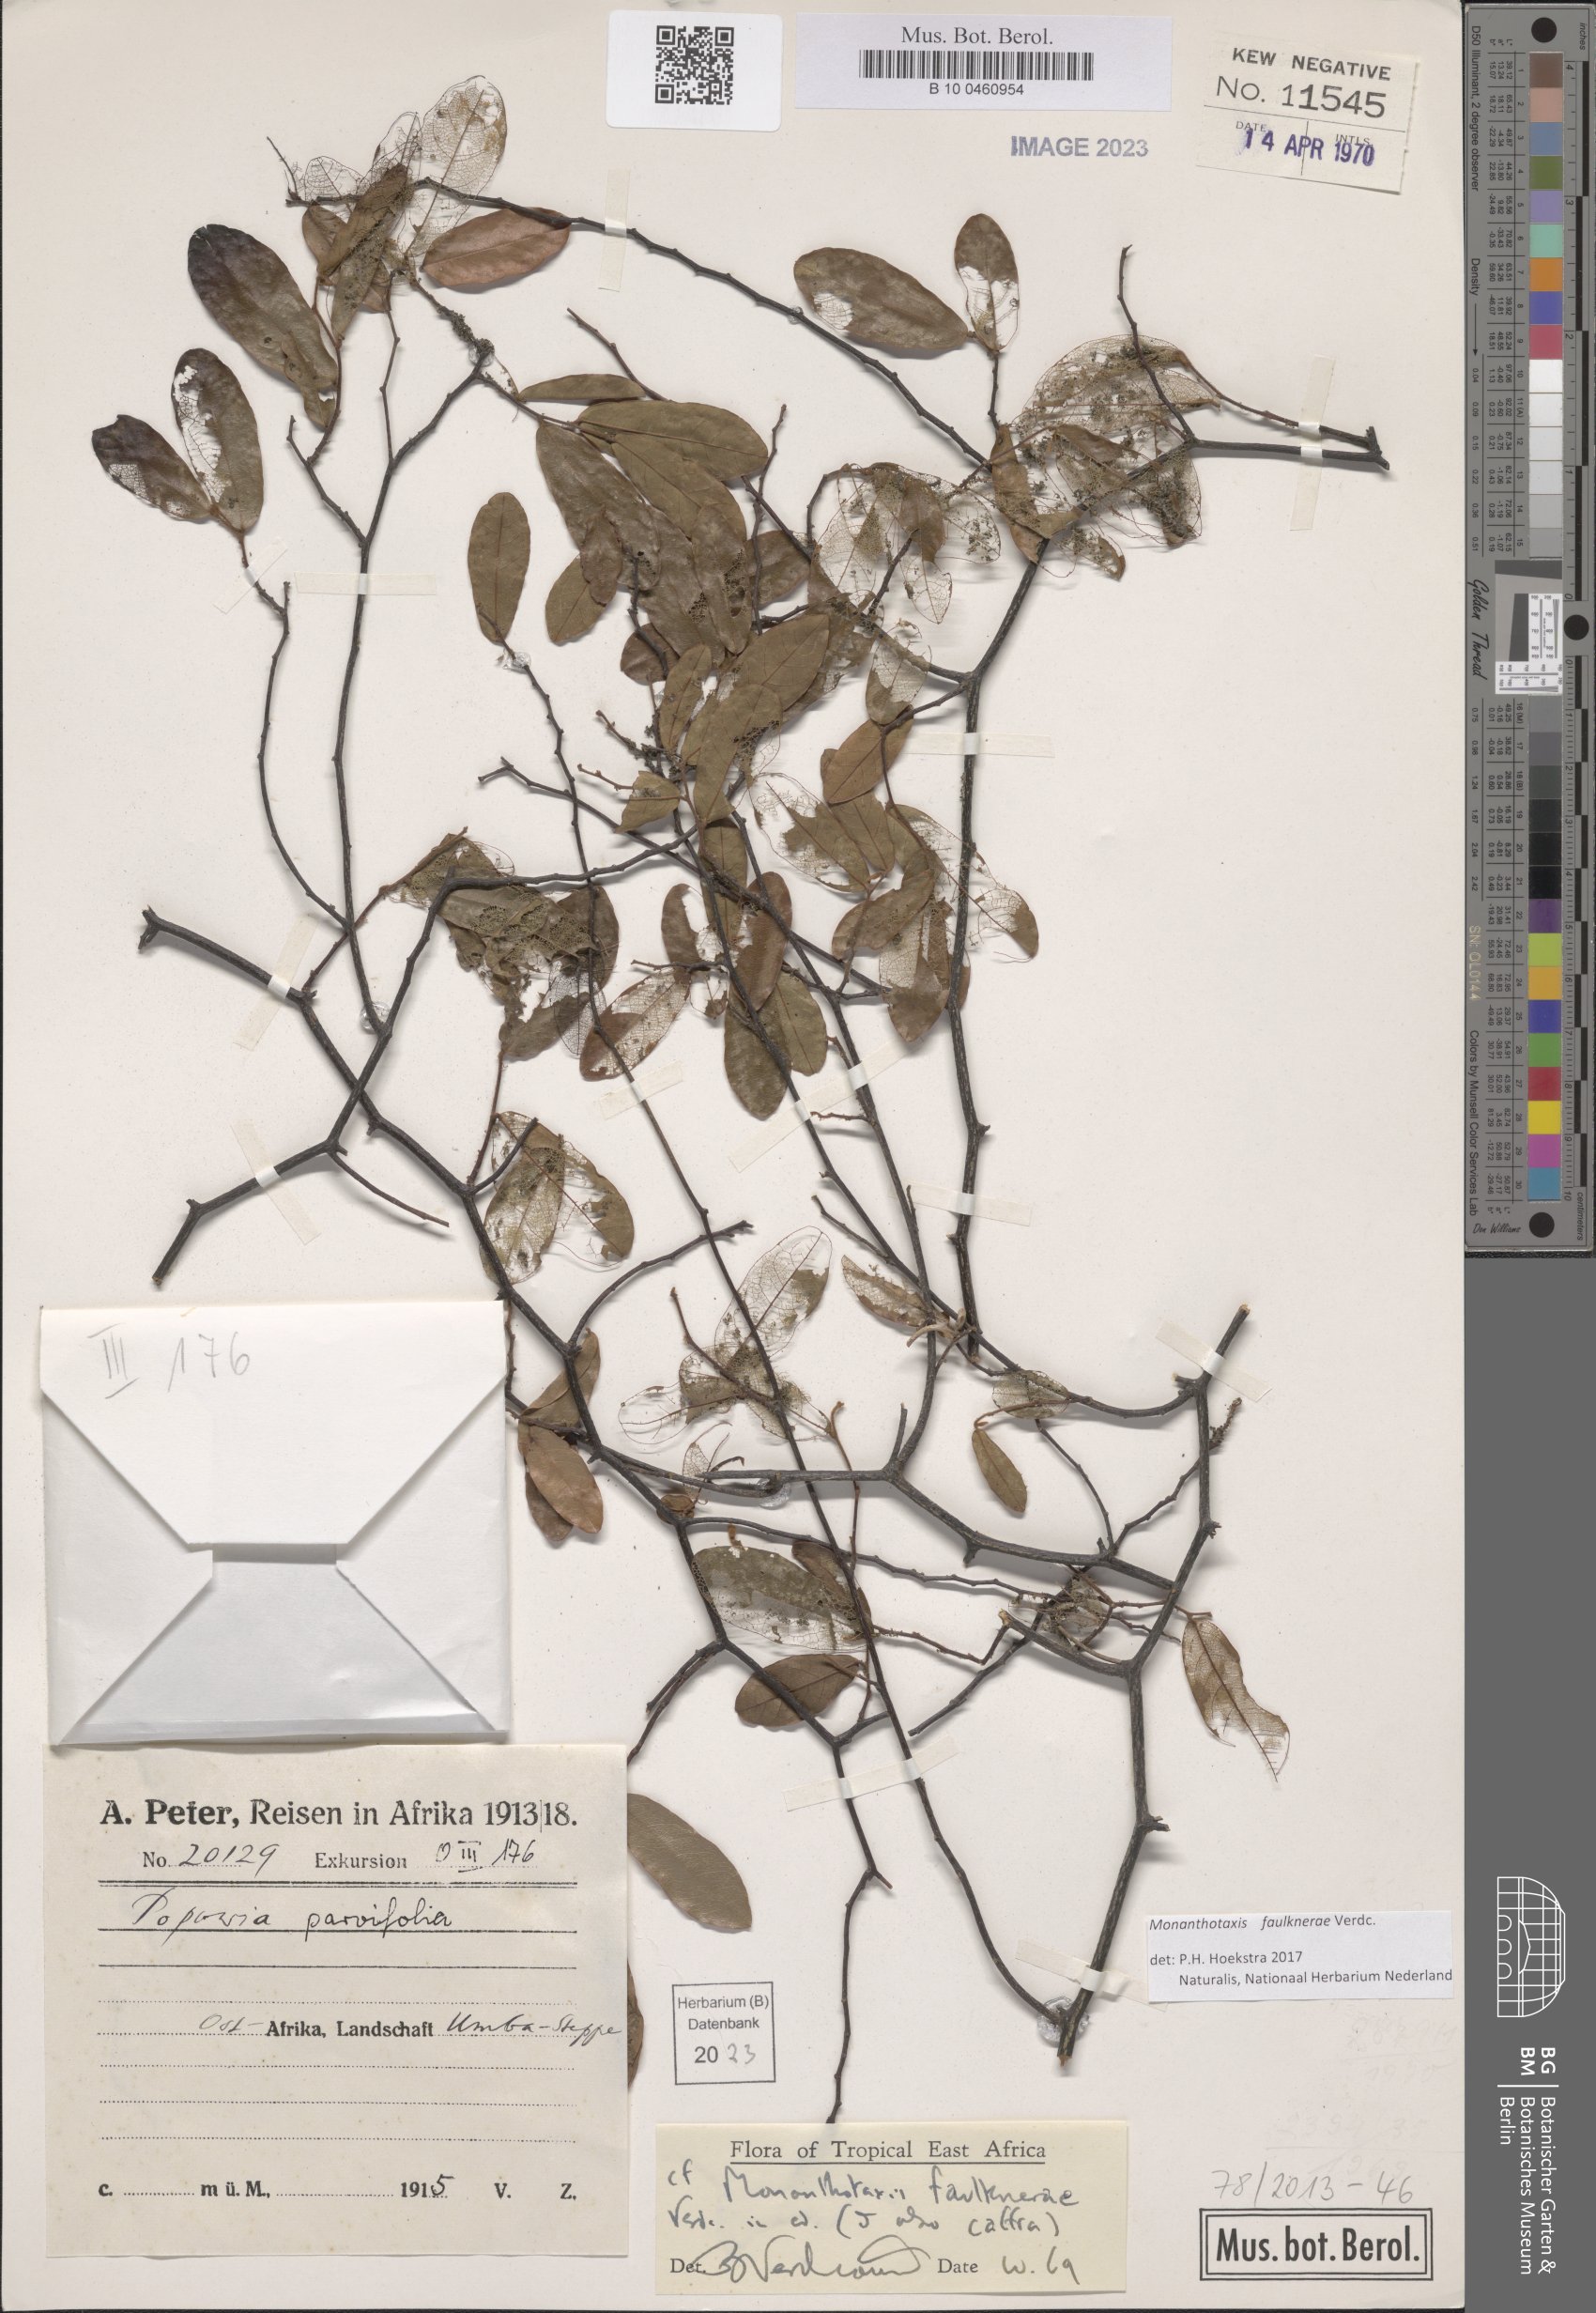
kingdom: Plantae
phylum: Tracheophyta
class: Magnoliopsida
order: Magnoliales
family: Annonaceae
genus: Monanthotaxis
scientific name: Monanthotaxis faulknerae
